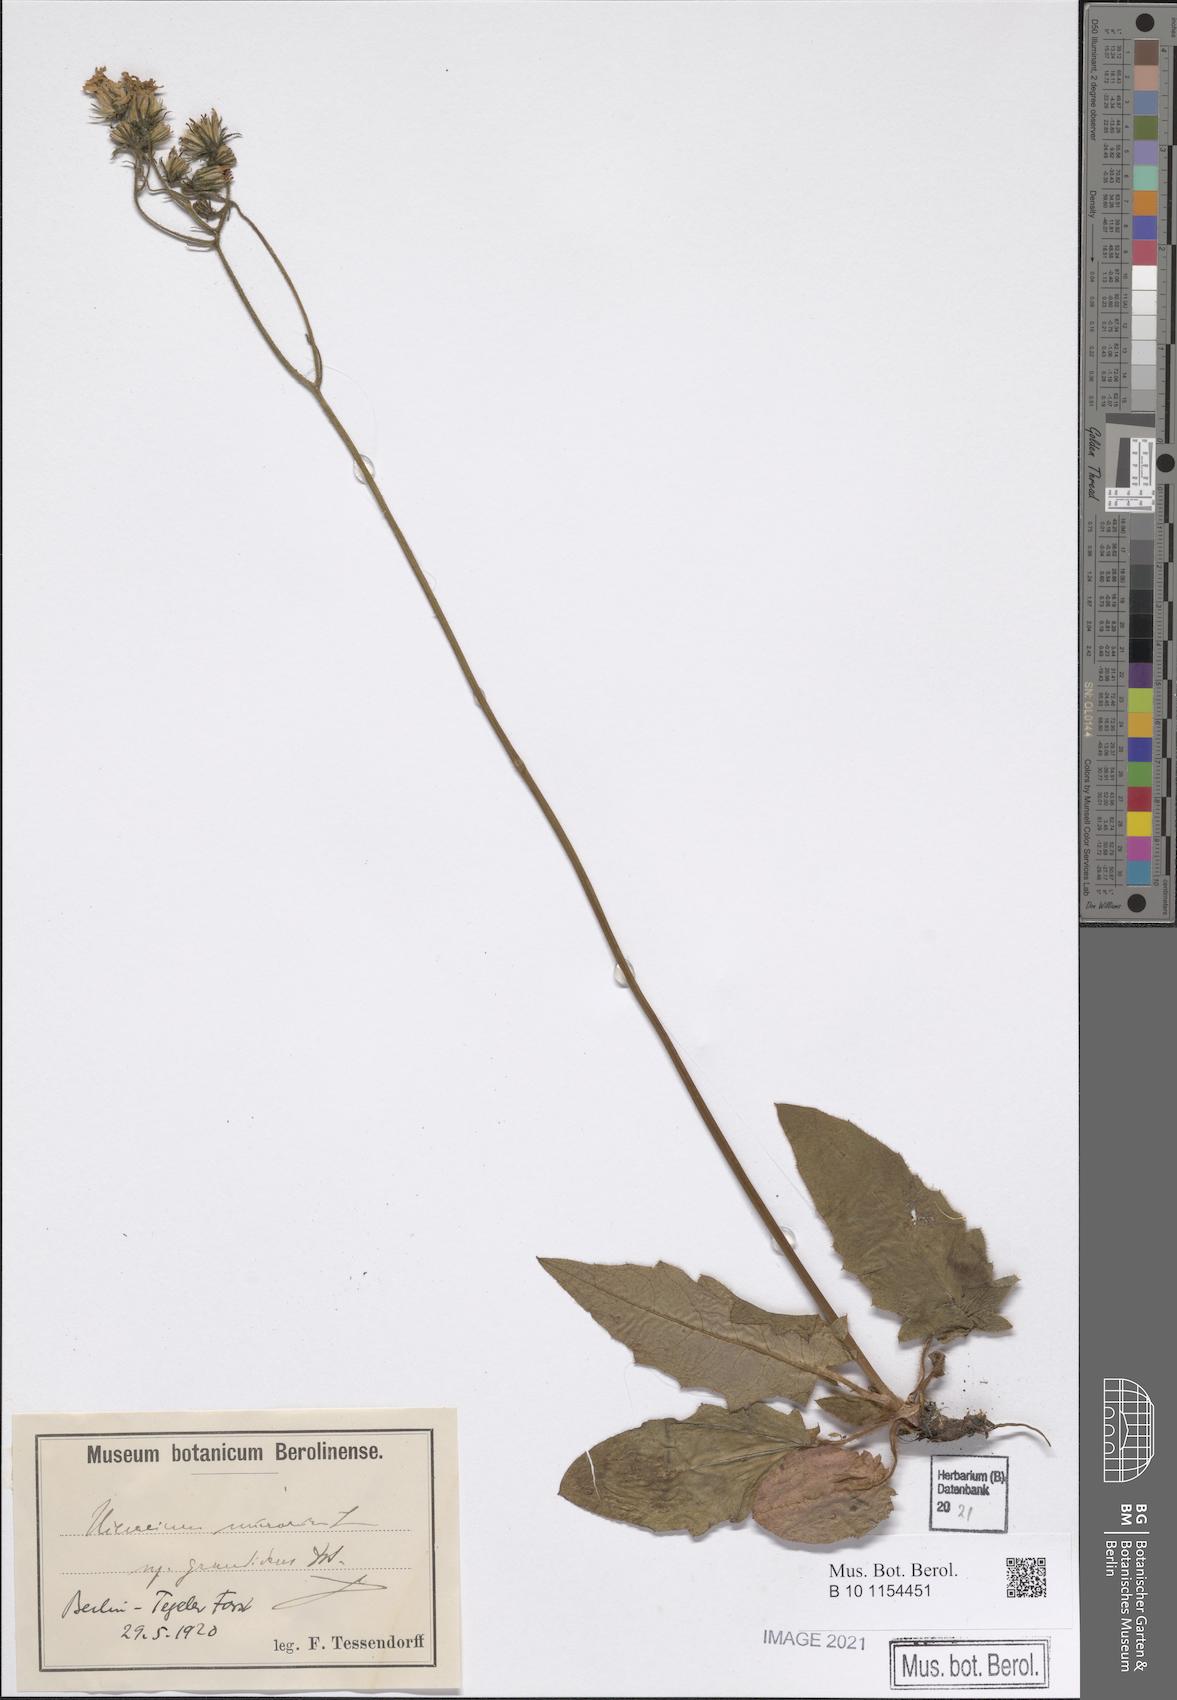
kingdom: Plantae
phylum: Tracheophyta
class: Magnoliopsida
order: Asterales
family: Asteraceae
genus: Hieracium
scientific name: Hieracium murorum
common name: Wall hawkweed
